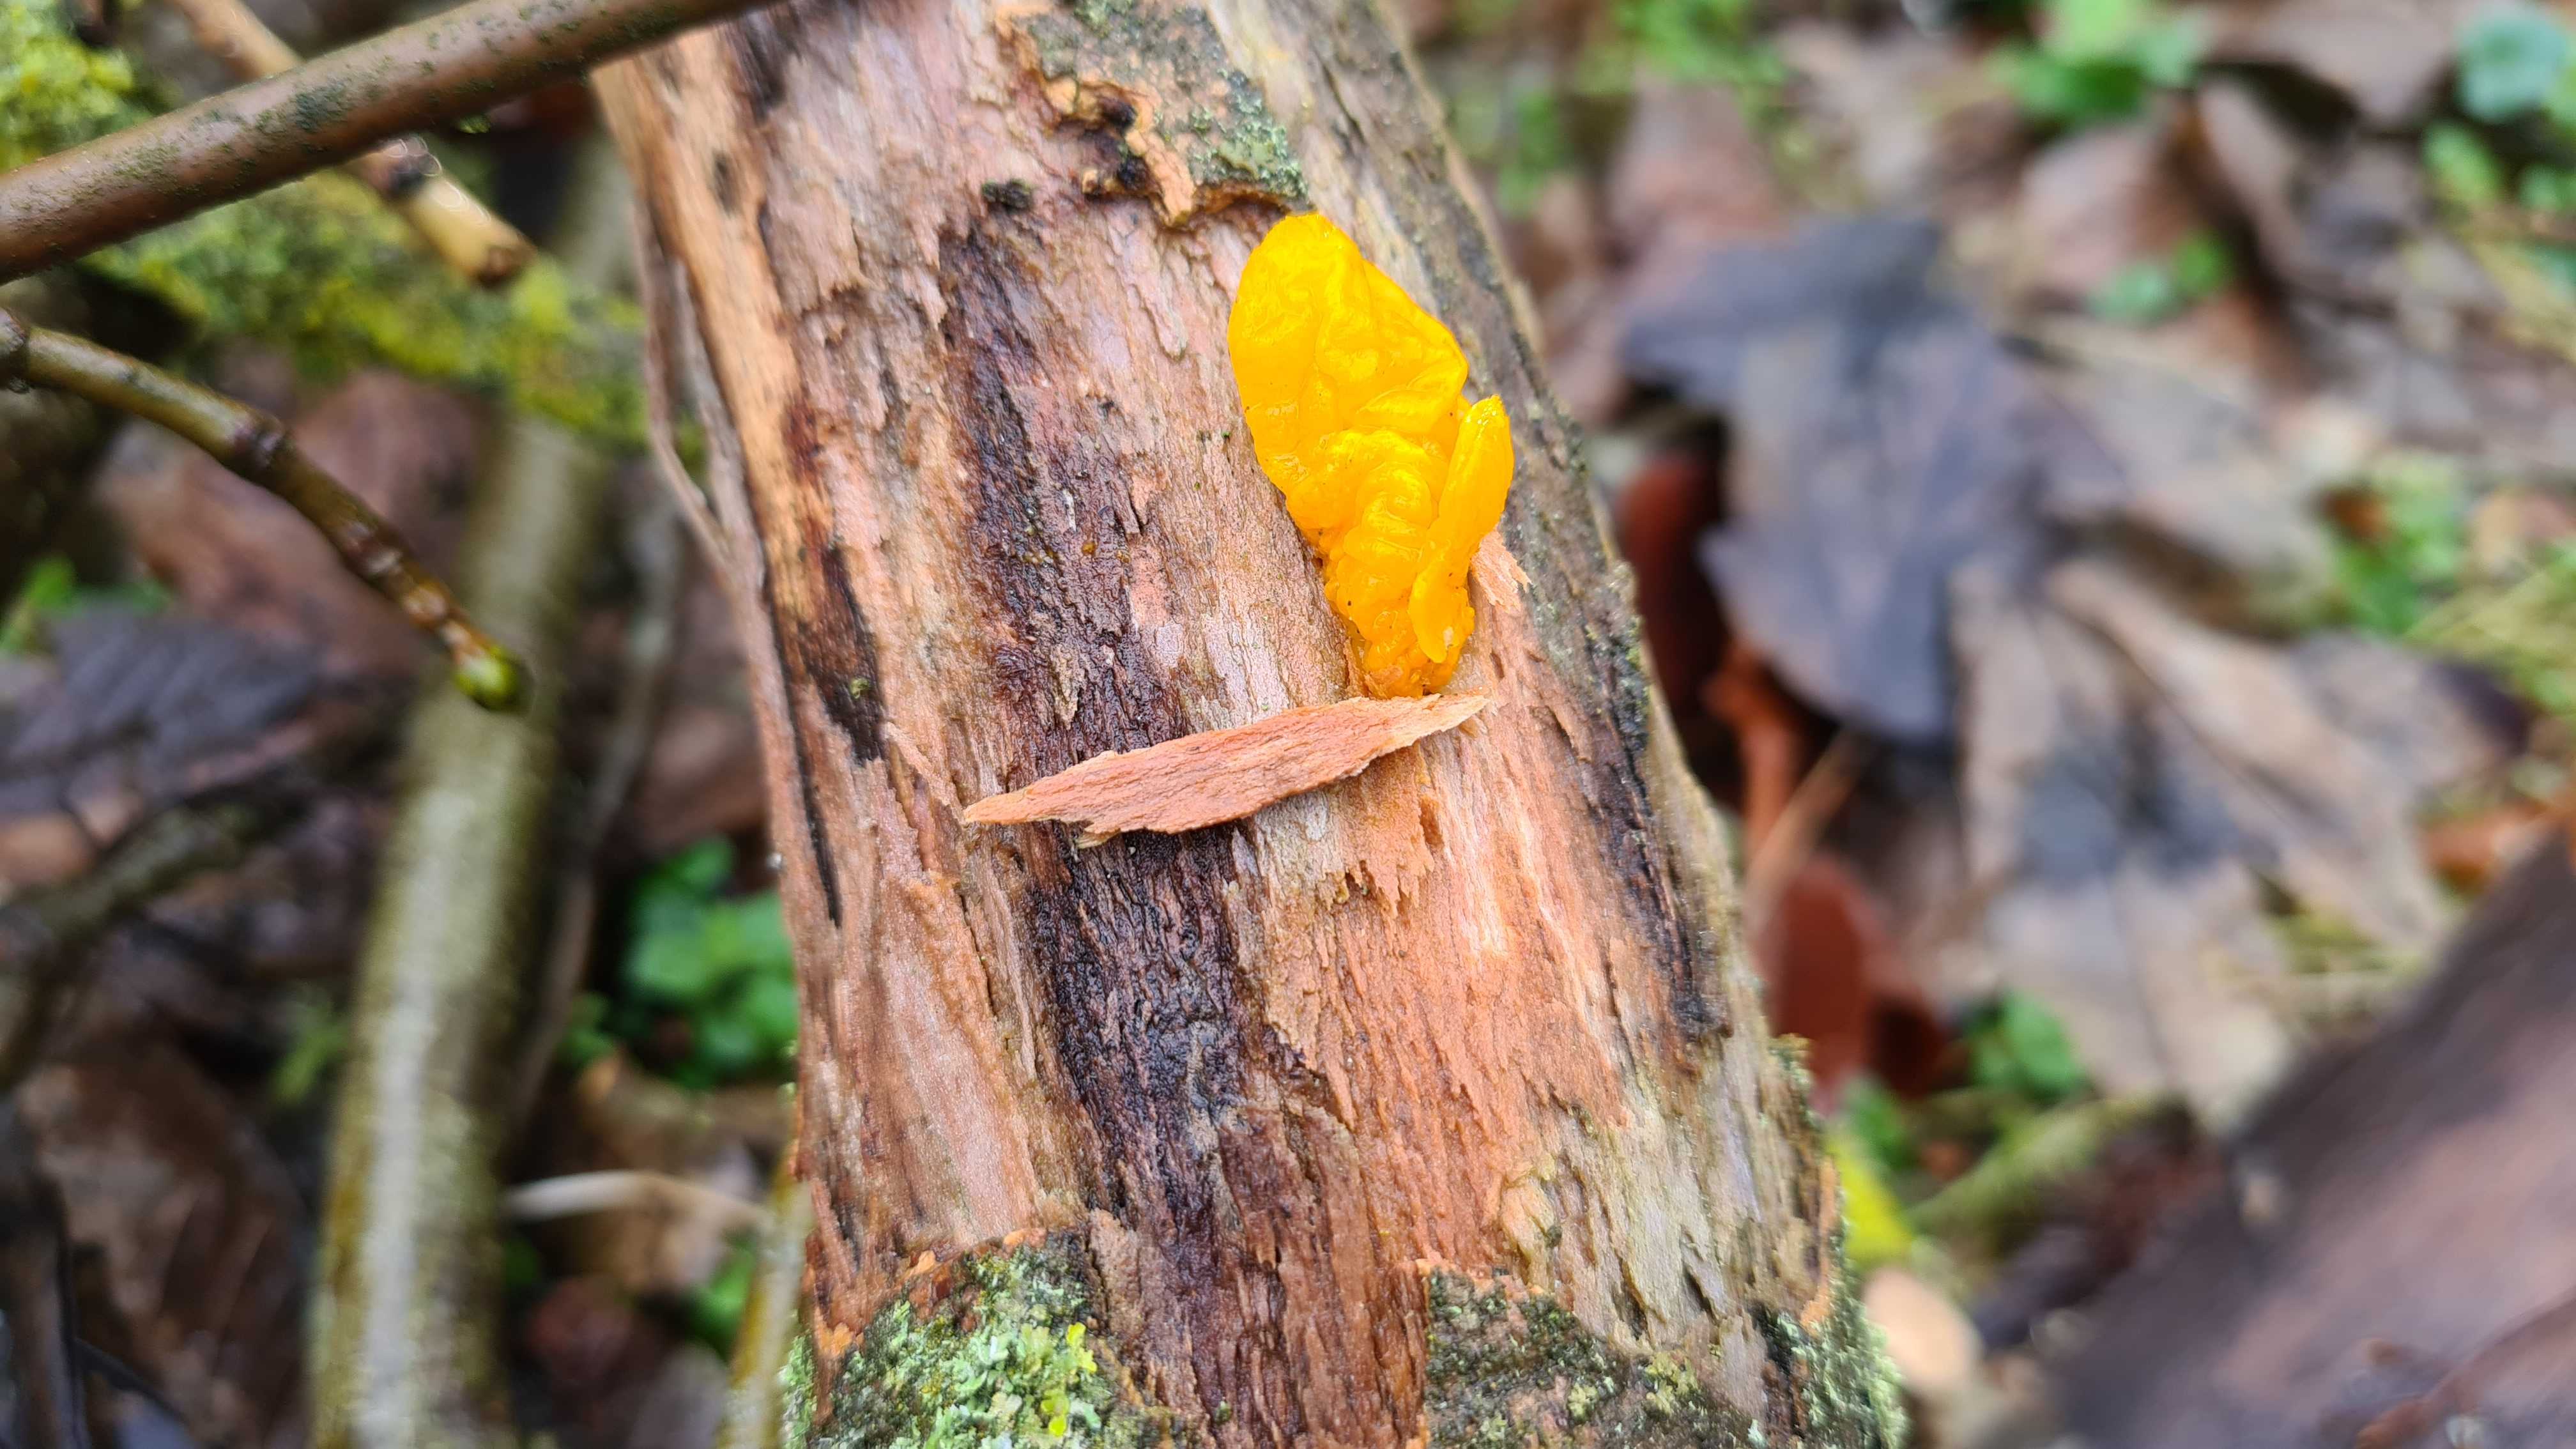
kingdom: Fungi
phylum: Basidiomycota
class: Tremellomycetes
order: Tremellales
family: Tremellaceae
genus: Tremella
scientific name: Tremella mesenterica
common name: gul bævresvamp
